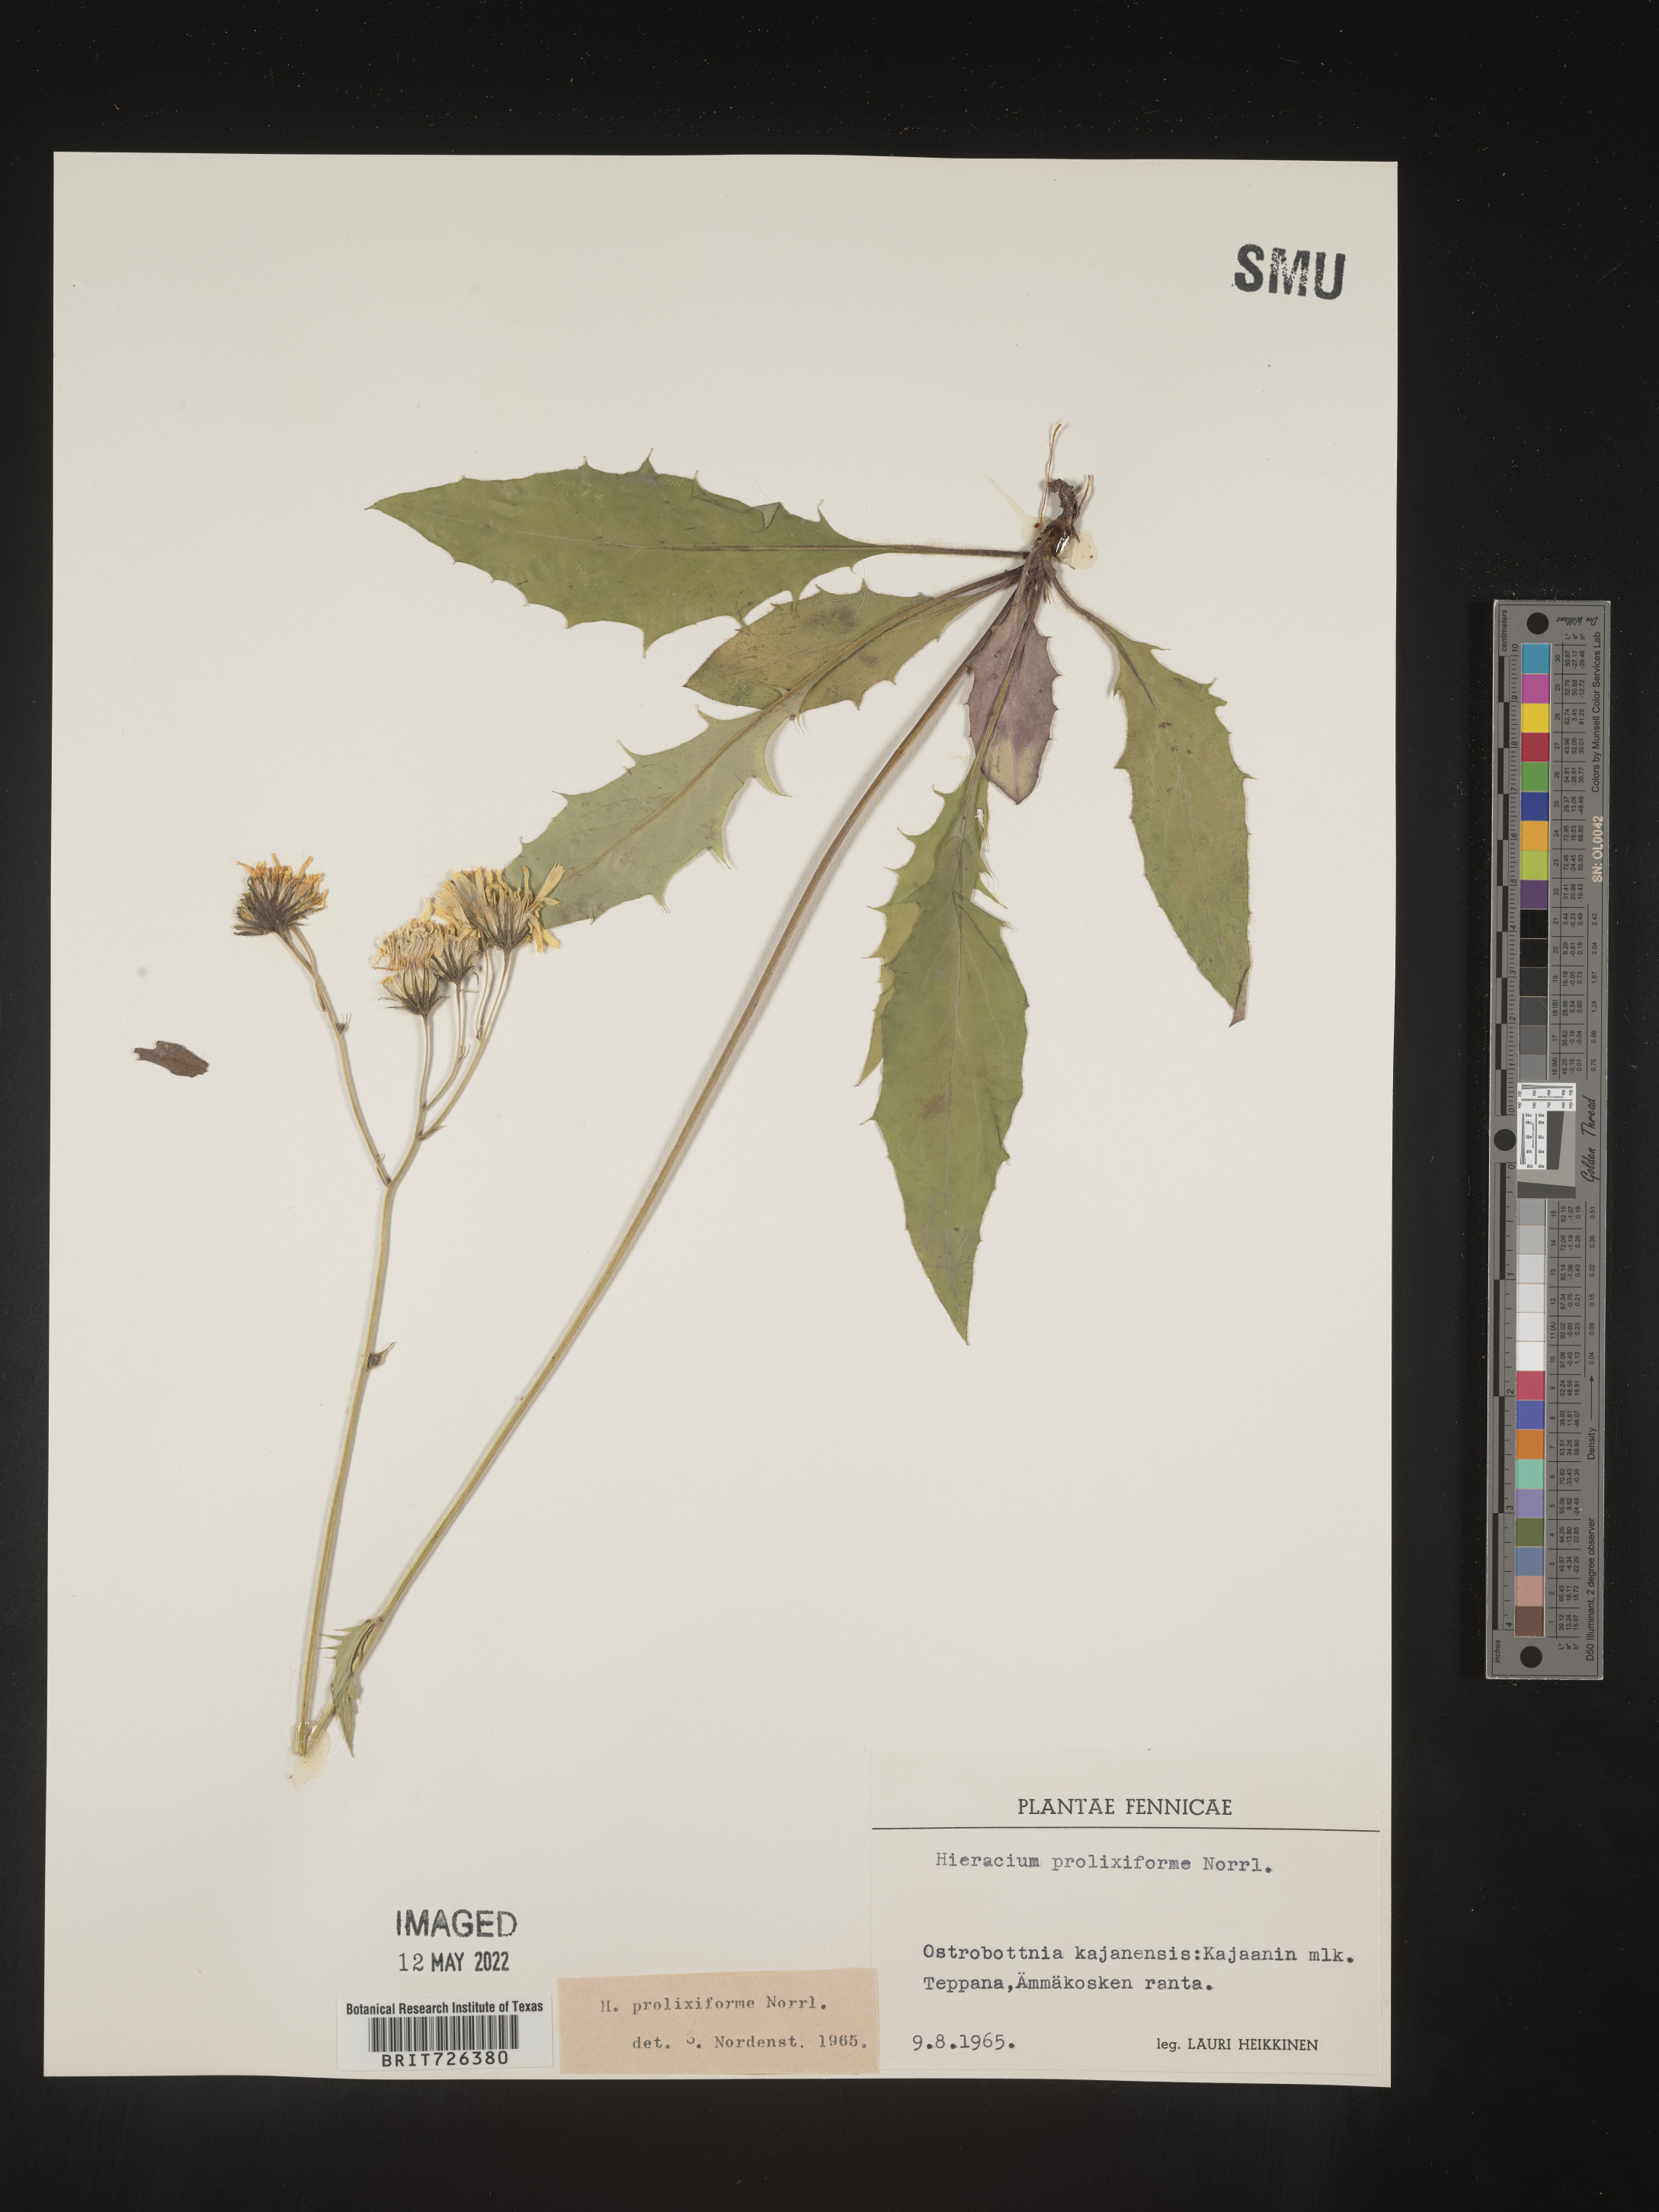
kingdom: Plantae
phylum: Tracheophyta
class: Magnoliopsida
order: Asterales
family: Asteraceae
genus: Hieracium
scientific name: Hieracium
